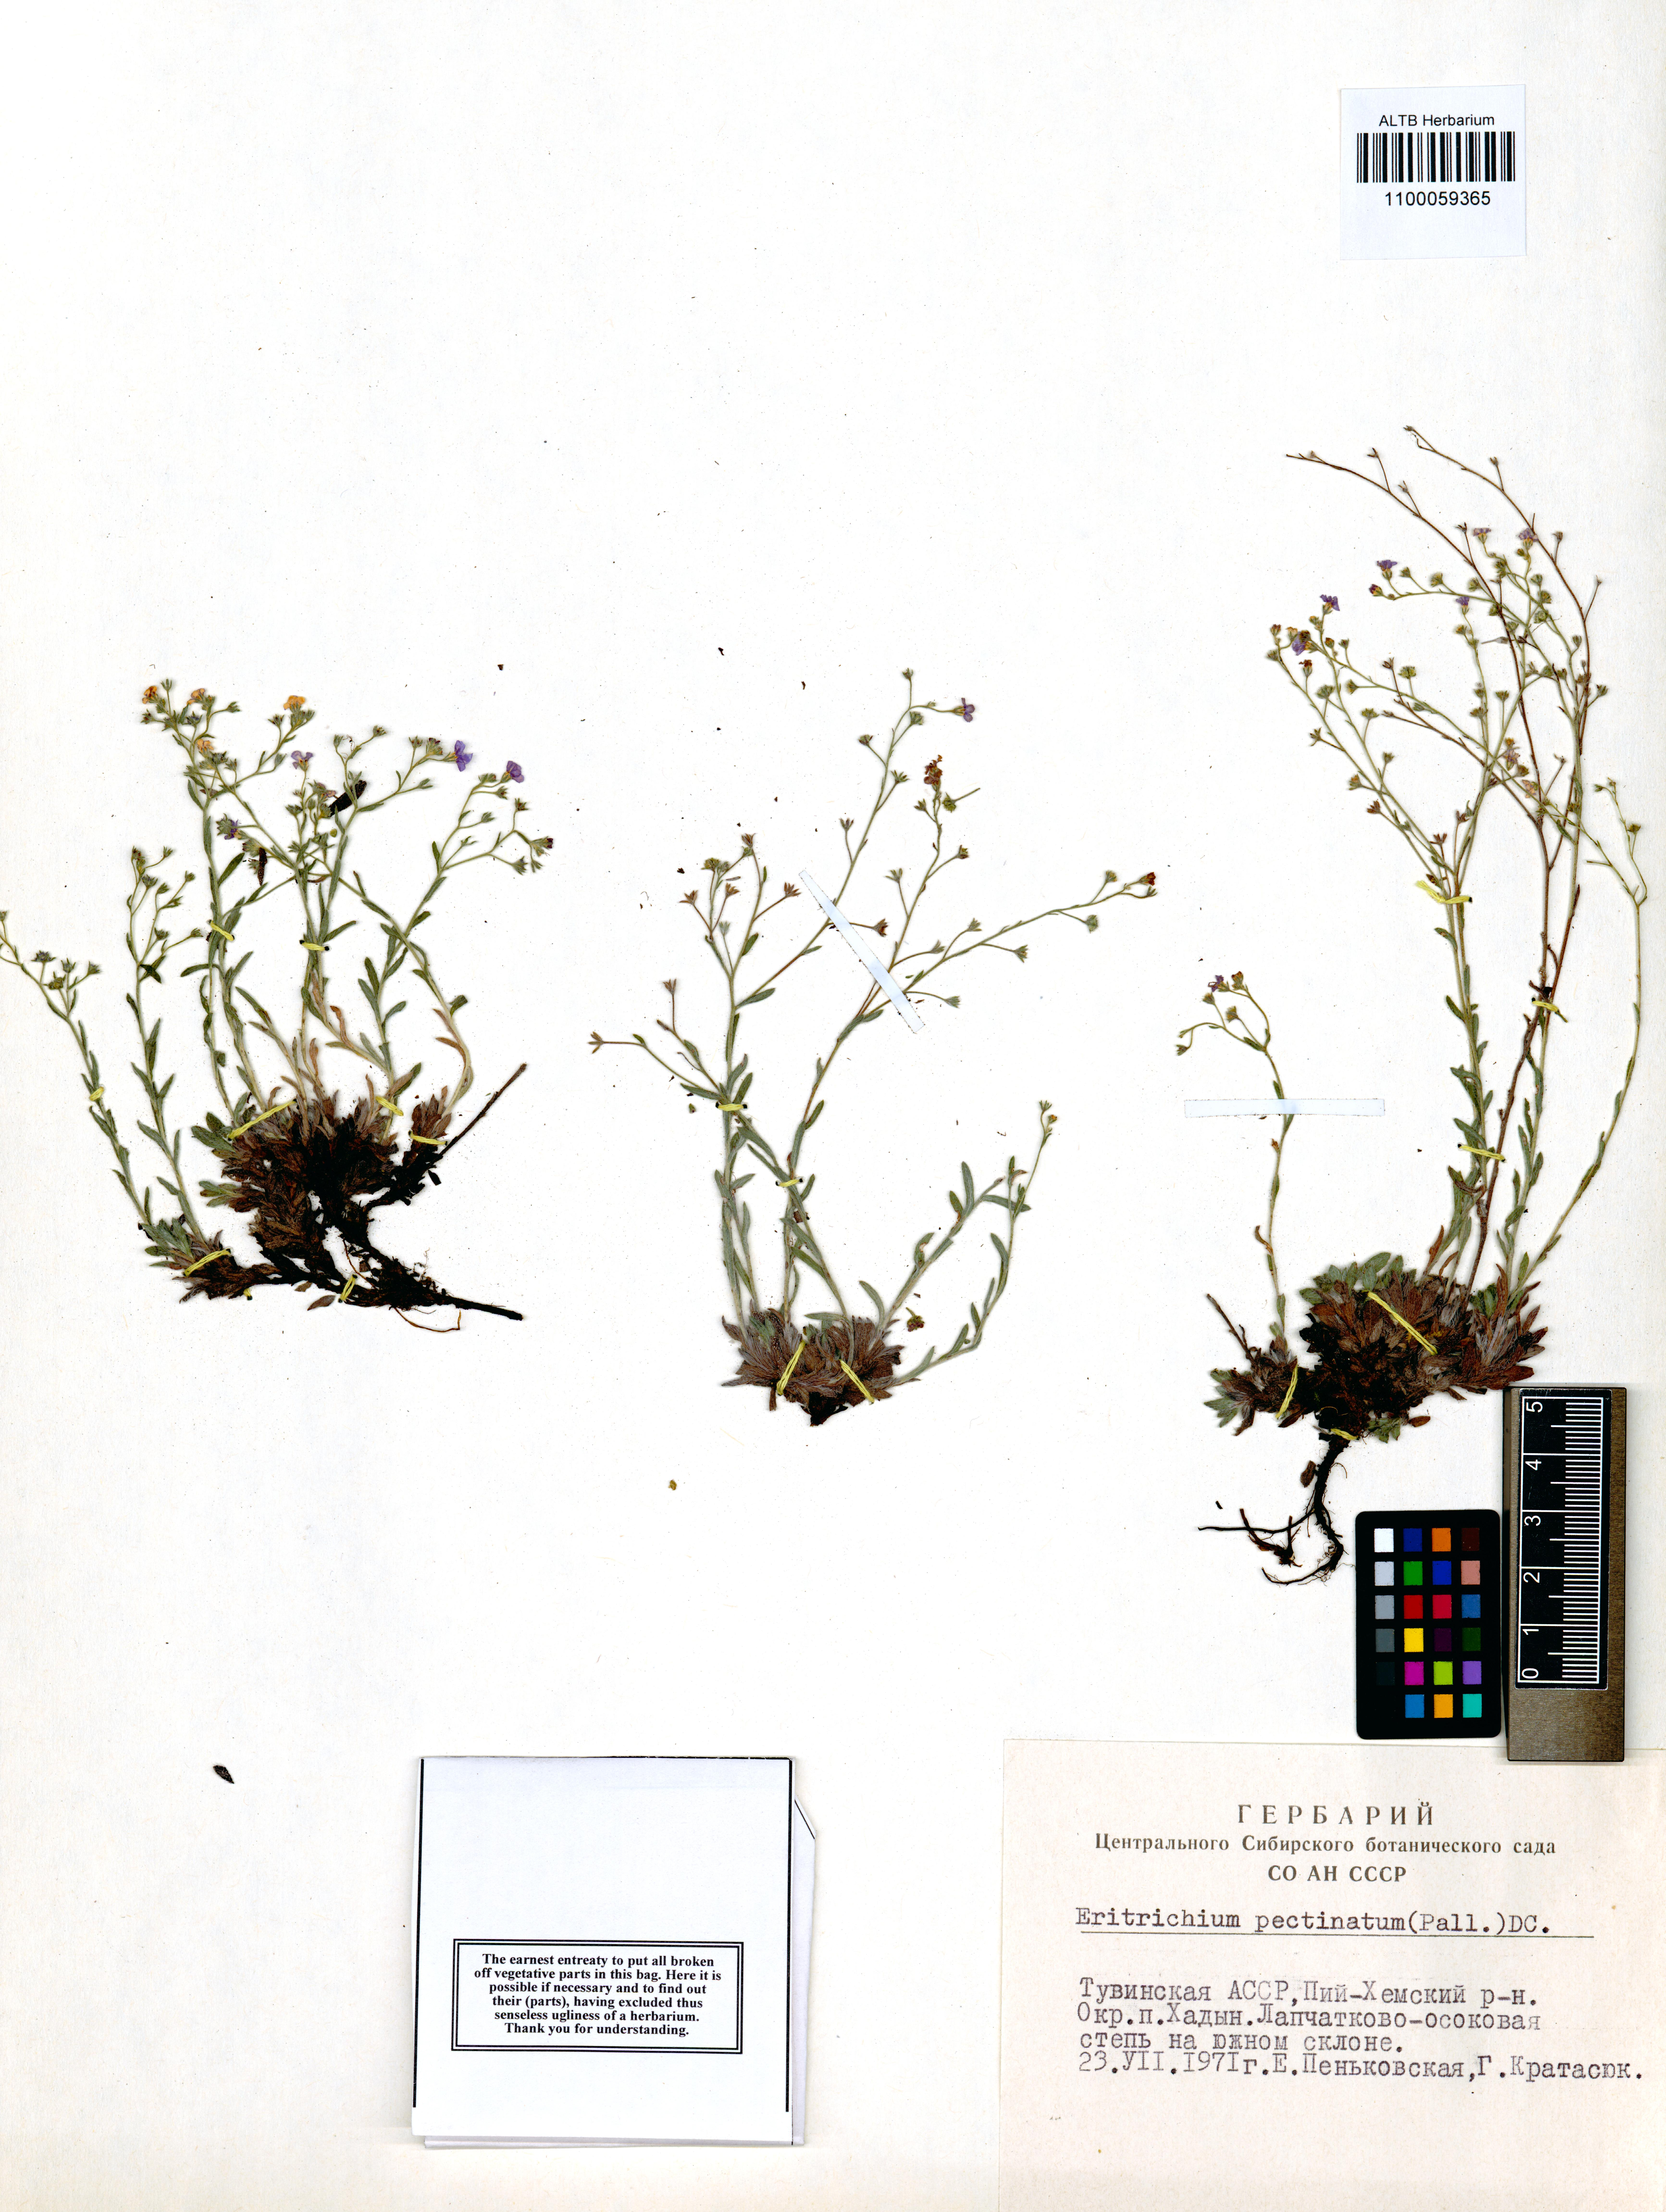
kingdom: Plantae
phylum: Tracheophyta
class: Magnoliopsida
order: Boraginales
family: Boraginaceae
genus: Eritrichium
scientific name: Eritrichium pectinatum
